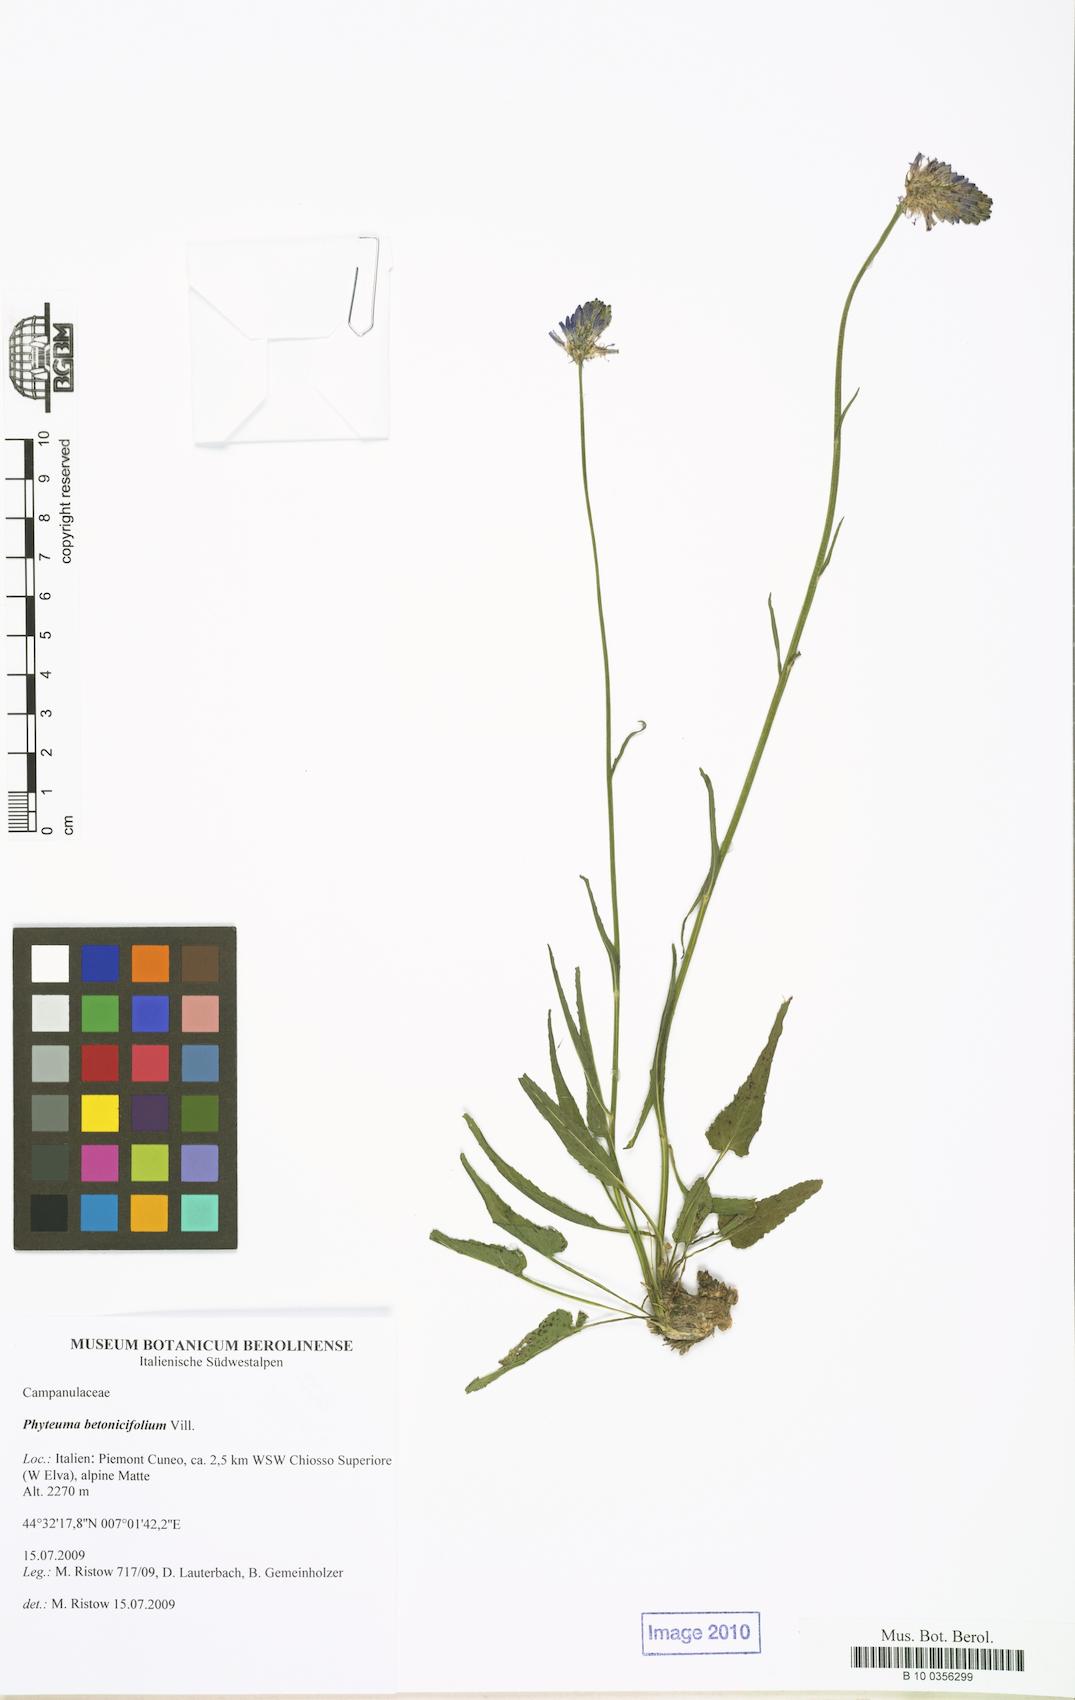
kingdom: Plantae
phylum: Tracheophyta
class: Magnoliopsida
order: Asterales
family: Campanulaceae
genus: Phyteuma
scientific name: Phyteuma betonicifolium
